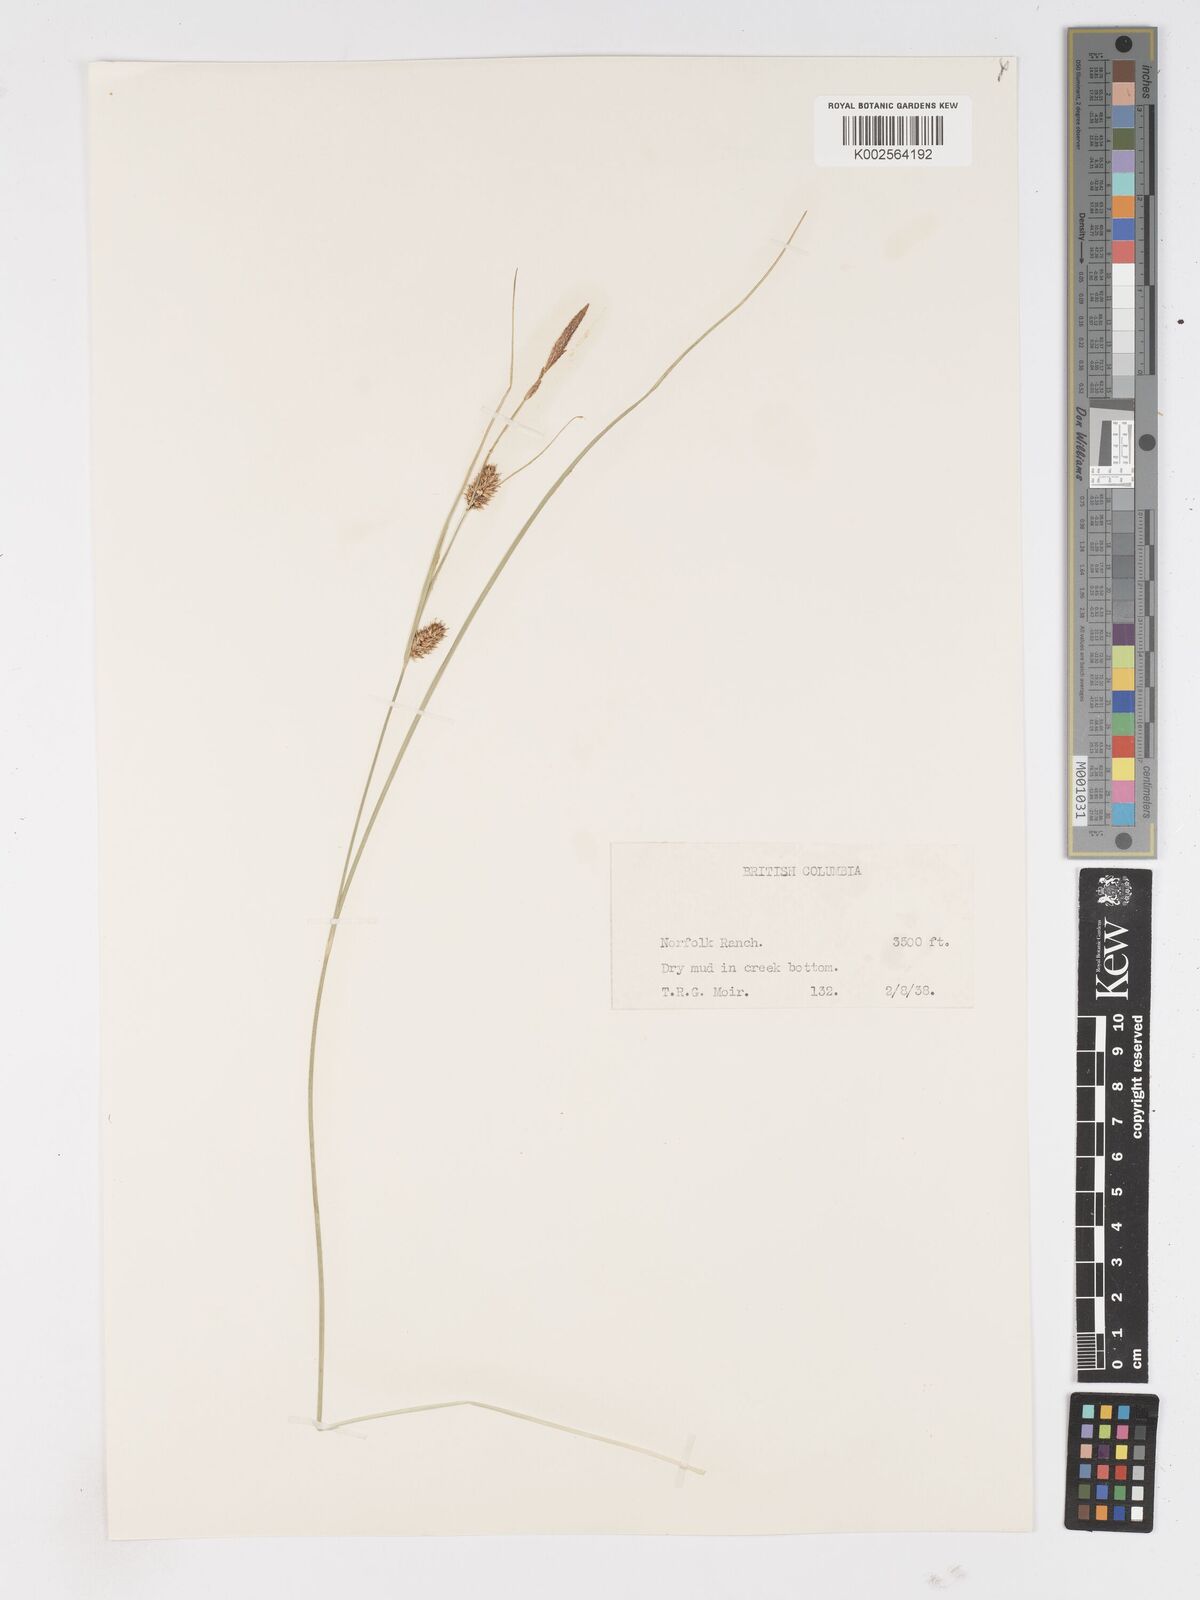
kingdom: Plantae
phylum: Tracheophyta
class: Liliopsida
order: Poales
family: Cyperaceae
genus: Carex
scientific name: Carex oligosperma
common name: Few-seed sedge
